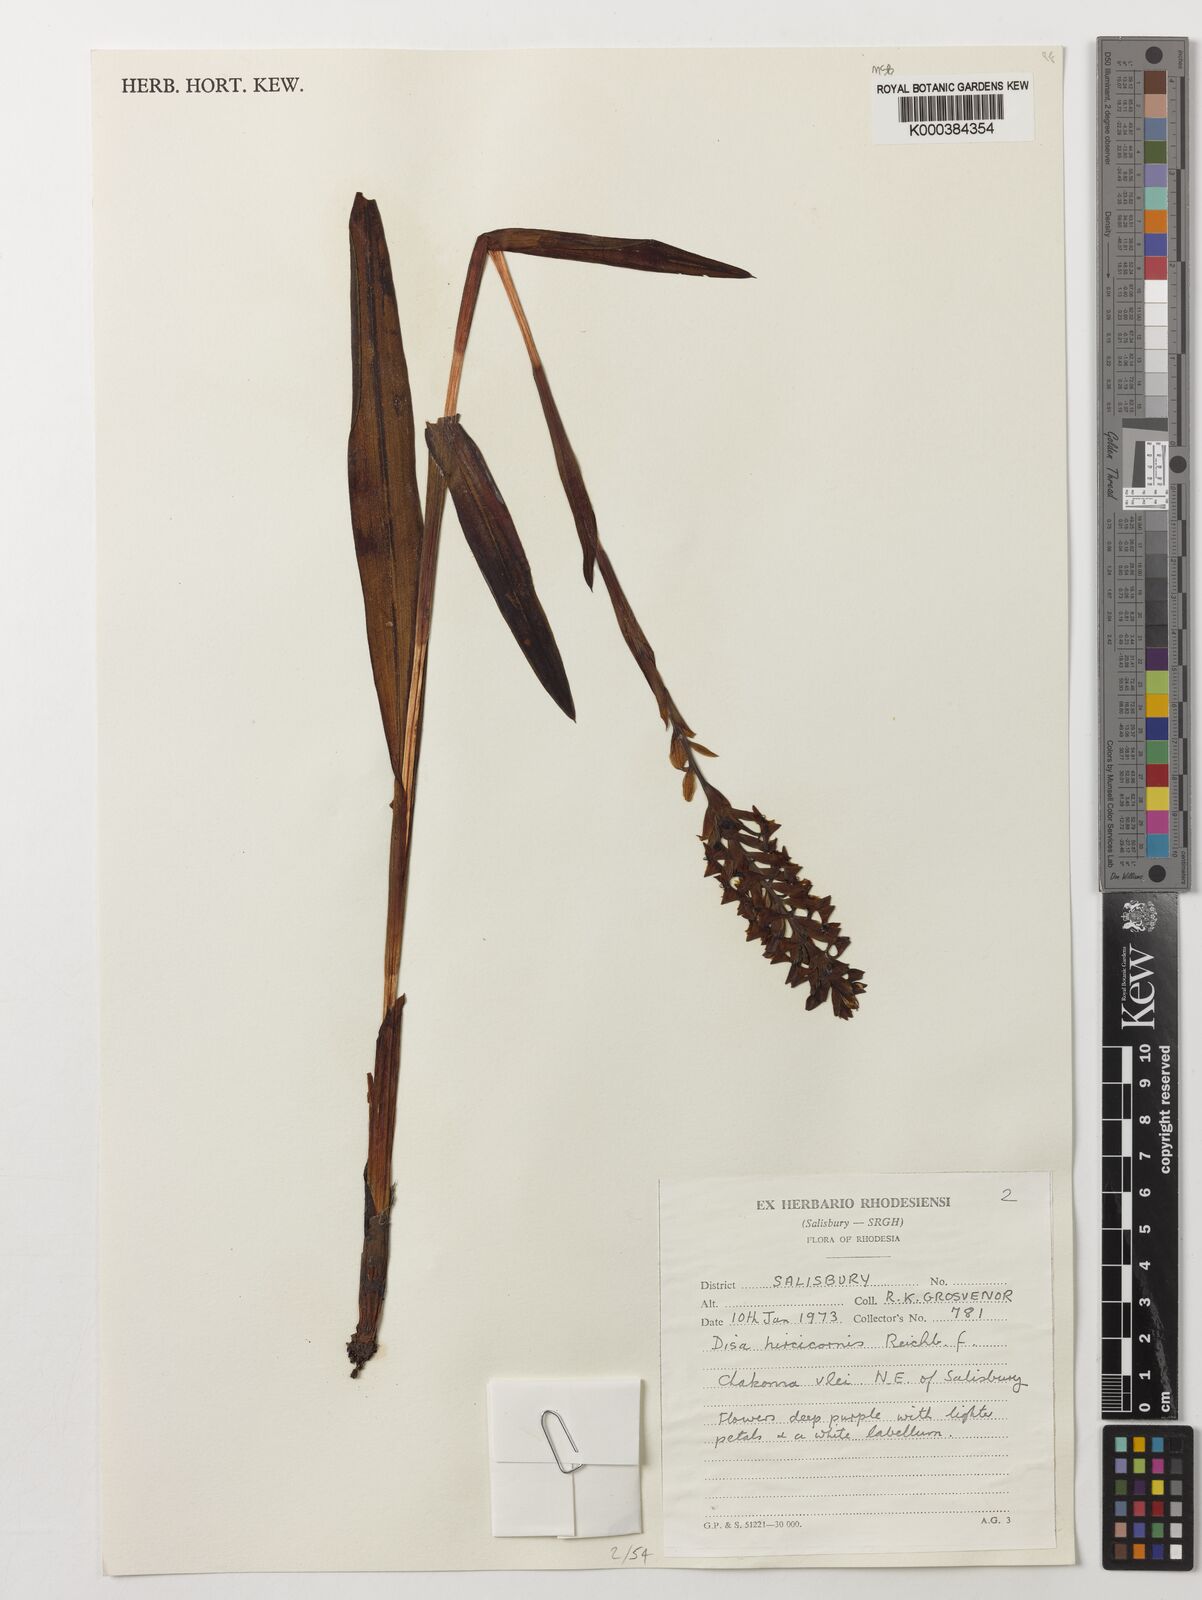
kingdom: Plantae
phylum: Tracheophyta
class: Liliopsida
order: Asparagales
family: Orchidaceae
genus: Disa
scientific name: Disa hircicornis
